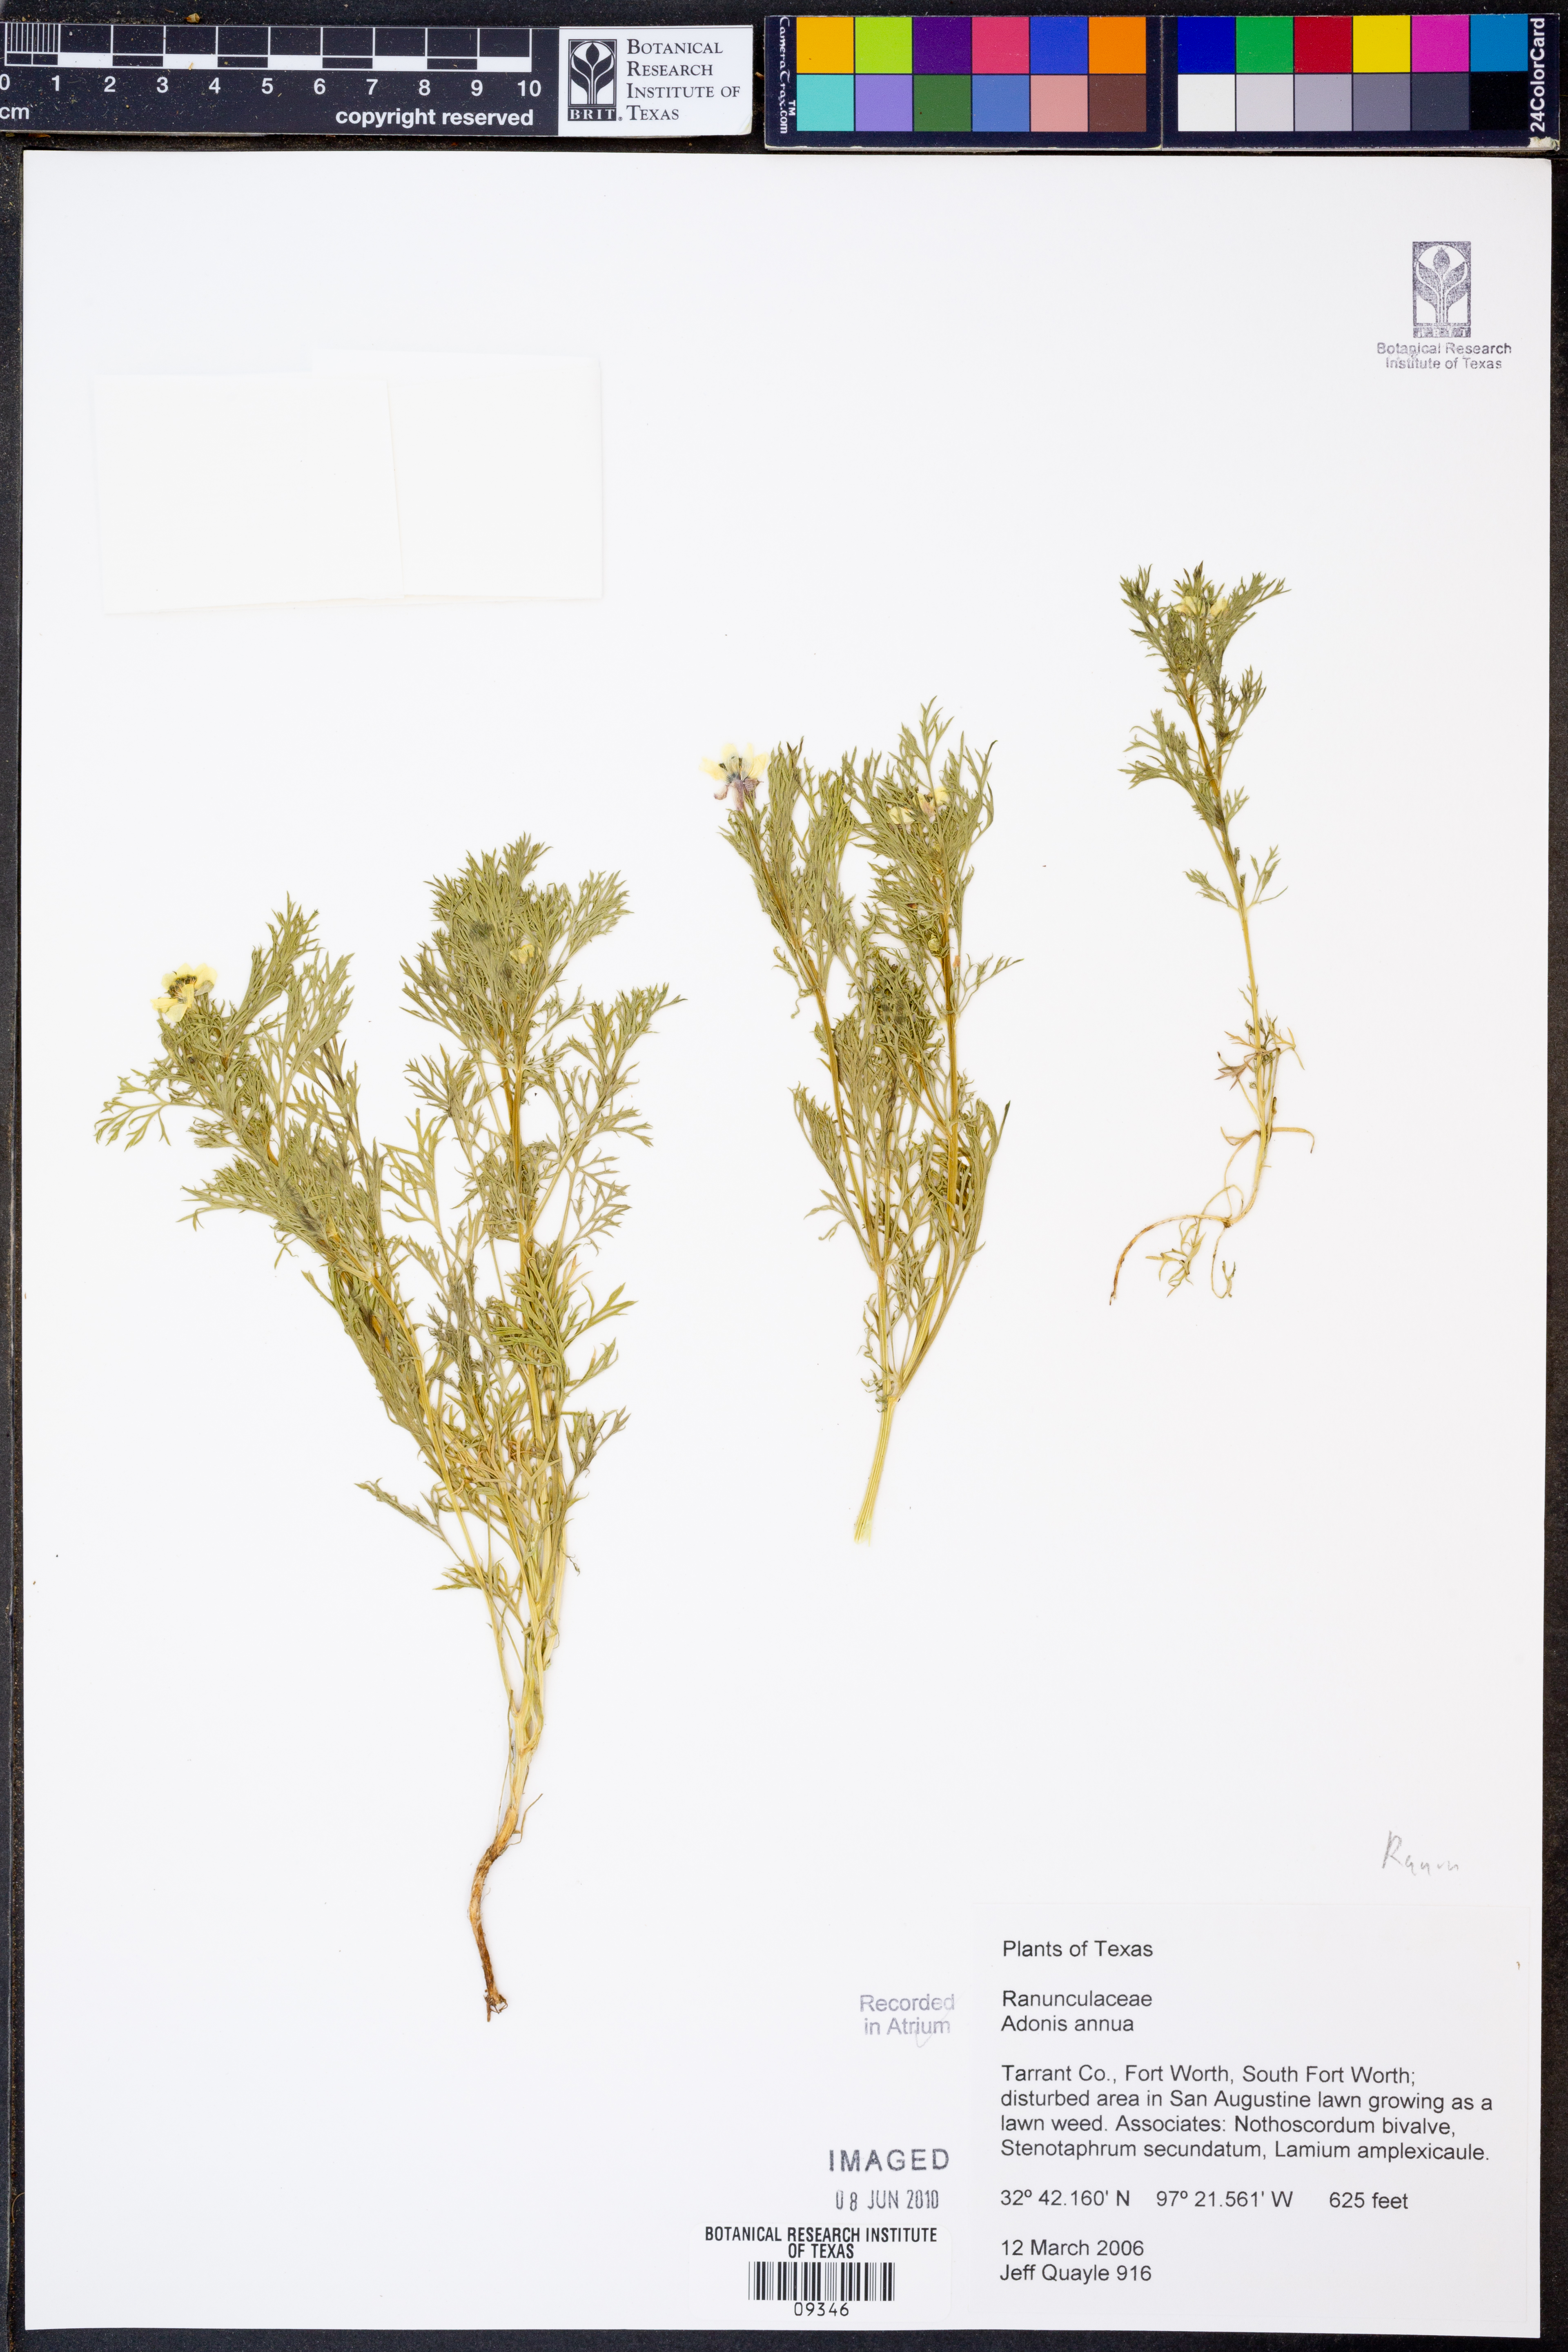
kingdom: Plantae
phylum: Tracheophyta
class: Magnoliopsida
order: Ranunculales
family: Ranunculaceae
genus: Adonis
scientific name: Adonis annua
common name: Pheasant's-eye
